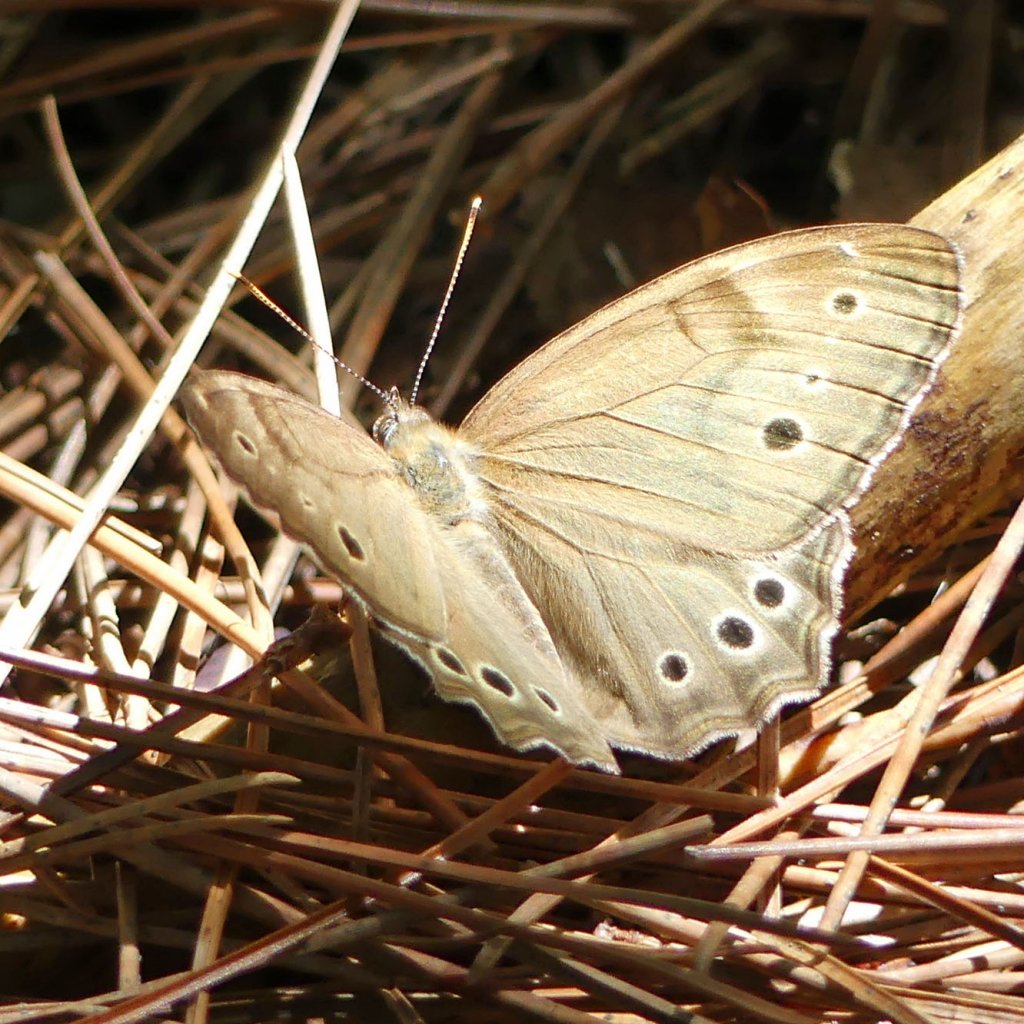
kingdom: Animalia
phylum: Arthropoda
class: Insecta
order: Lepidoptera
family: Nymphalidae
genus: Lethe
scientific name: Lethe anthedon
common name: Northern Pearly-Eye
